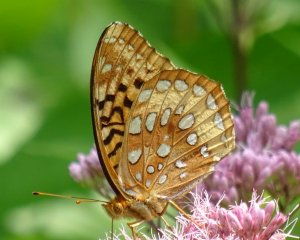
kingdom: Animalia
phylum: Arthropoda
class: Insecta
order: Lepidoptera
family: Nymphalidae
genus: Speyeria
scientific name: Speyeria cybele
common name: Great Spangled Fritillary
